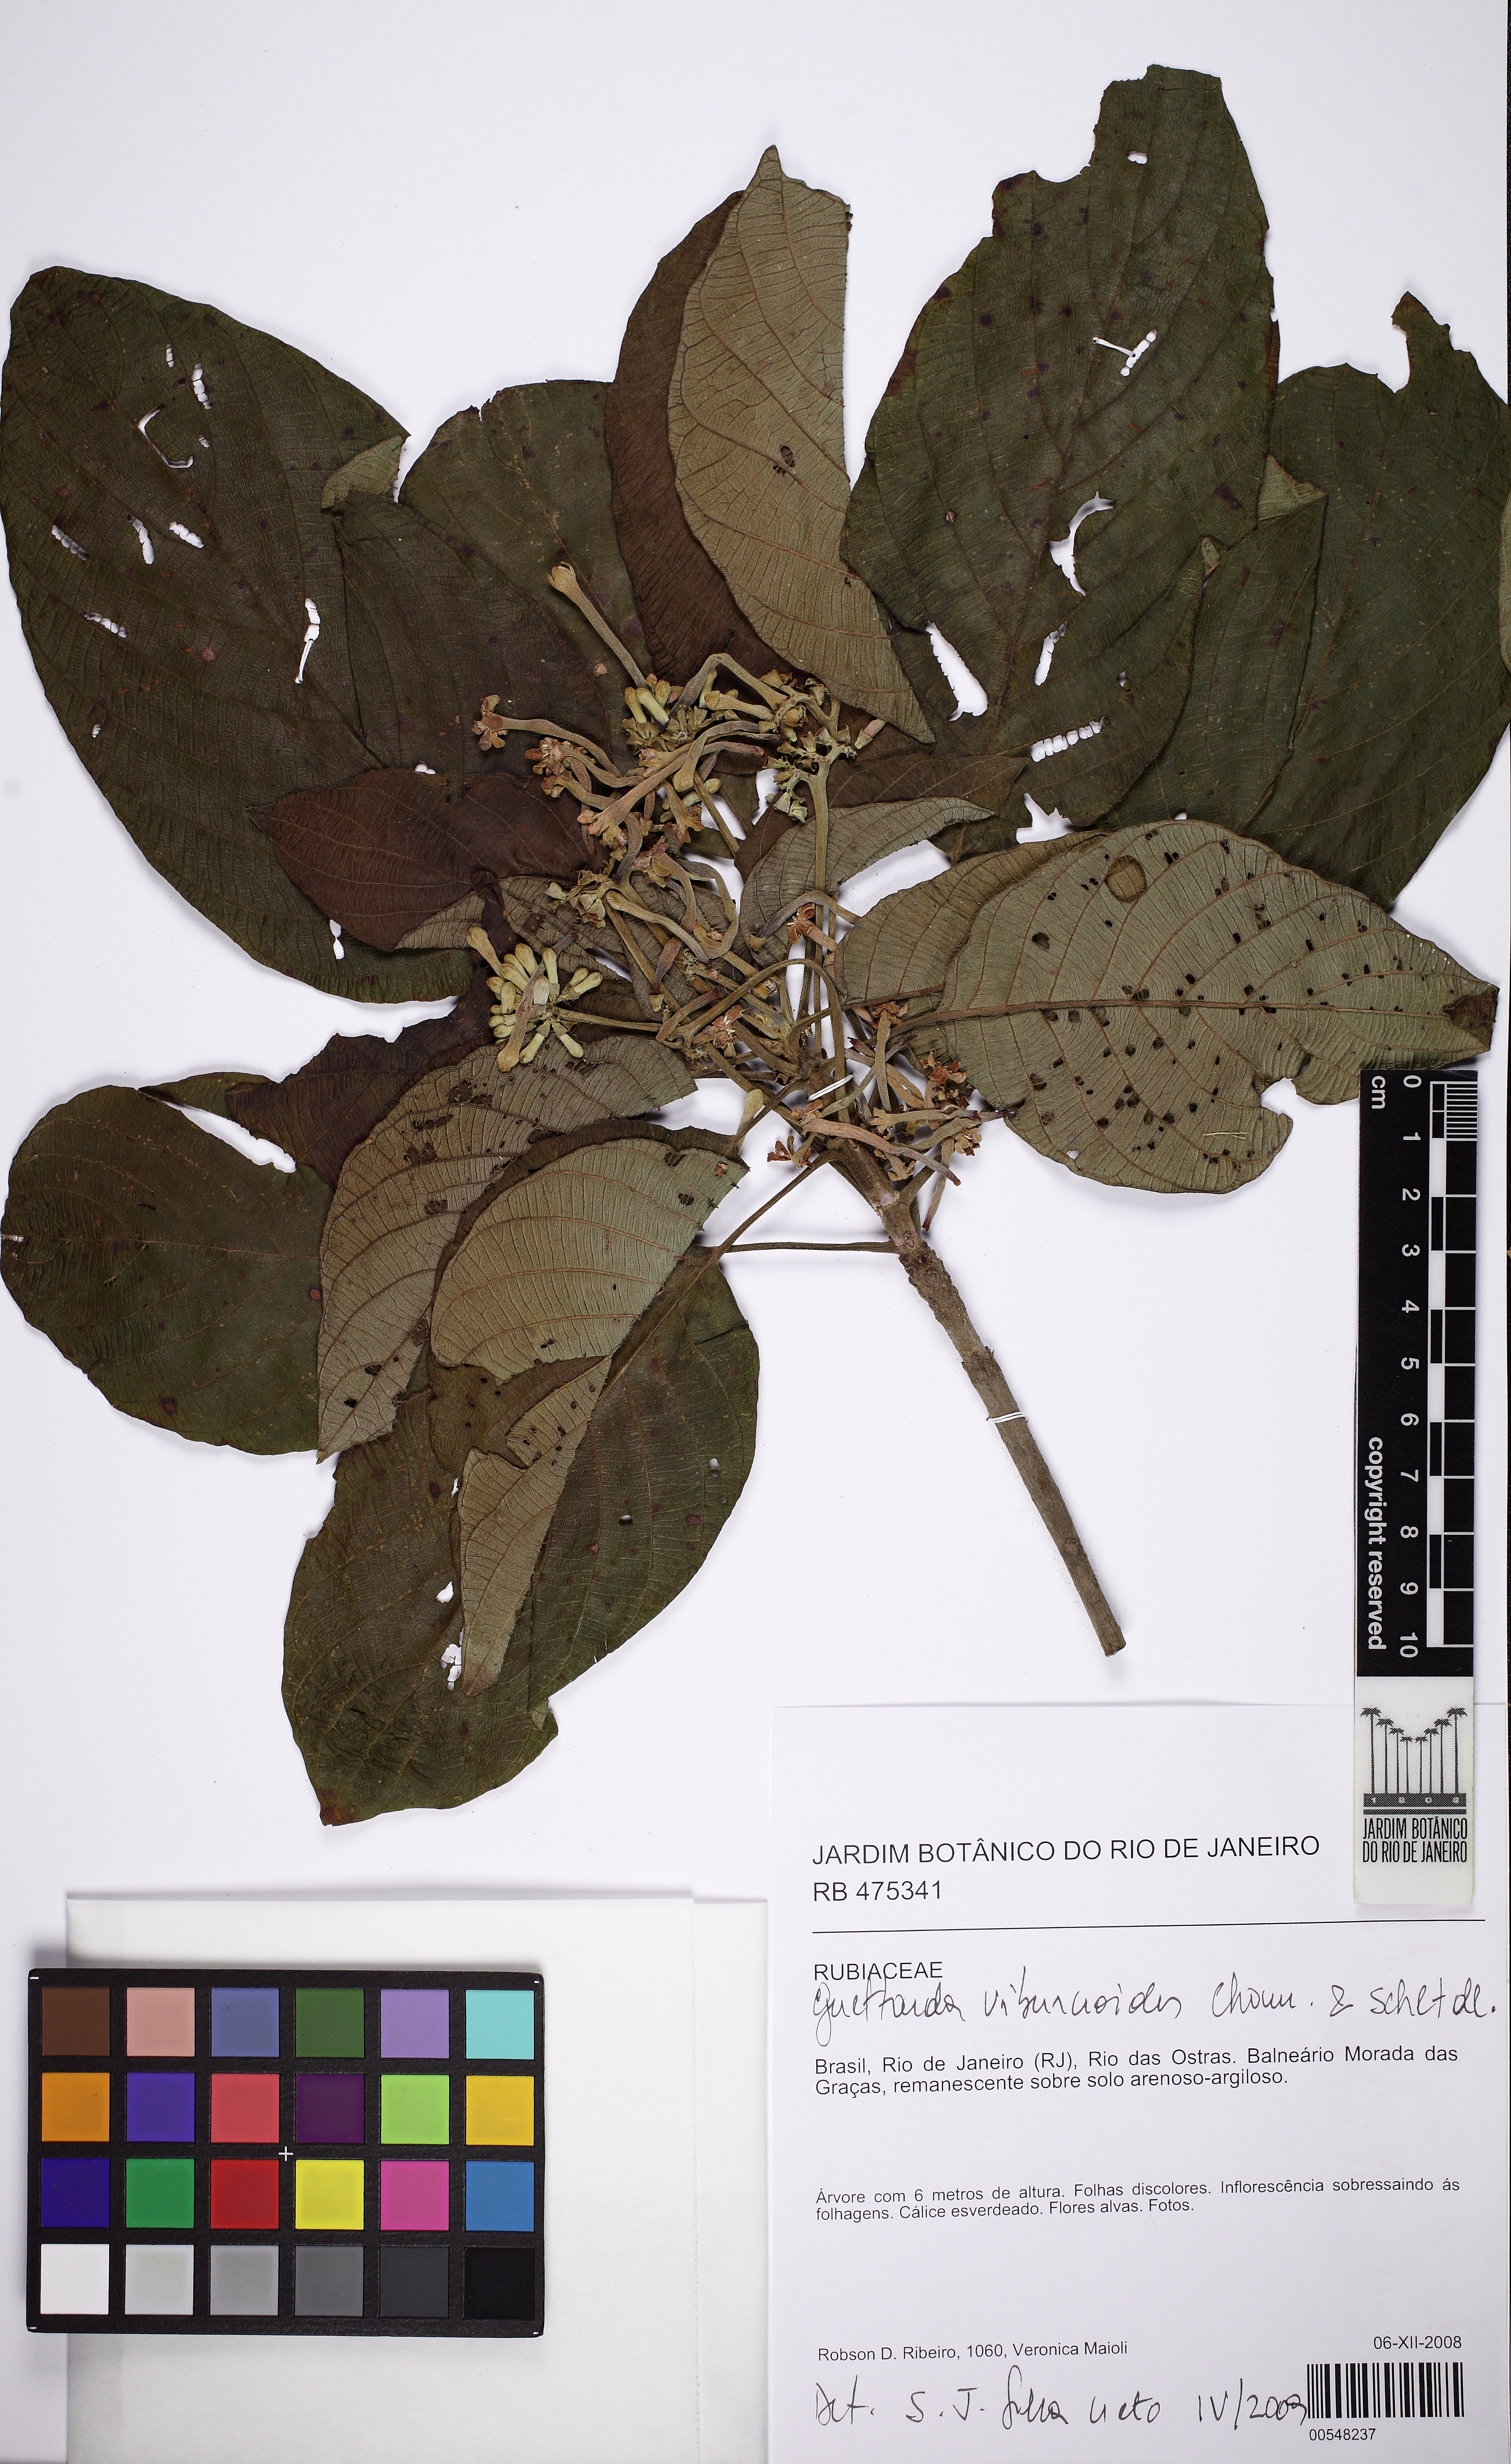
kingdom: Plantae
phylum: Tracheophyta
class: Magnoliopsida
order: Gentianales
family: Rubiaceae
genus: Guettarda
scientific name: Guettarda viburnoides
